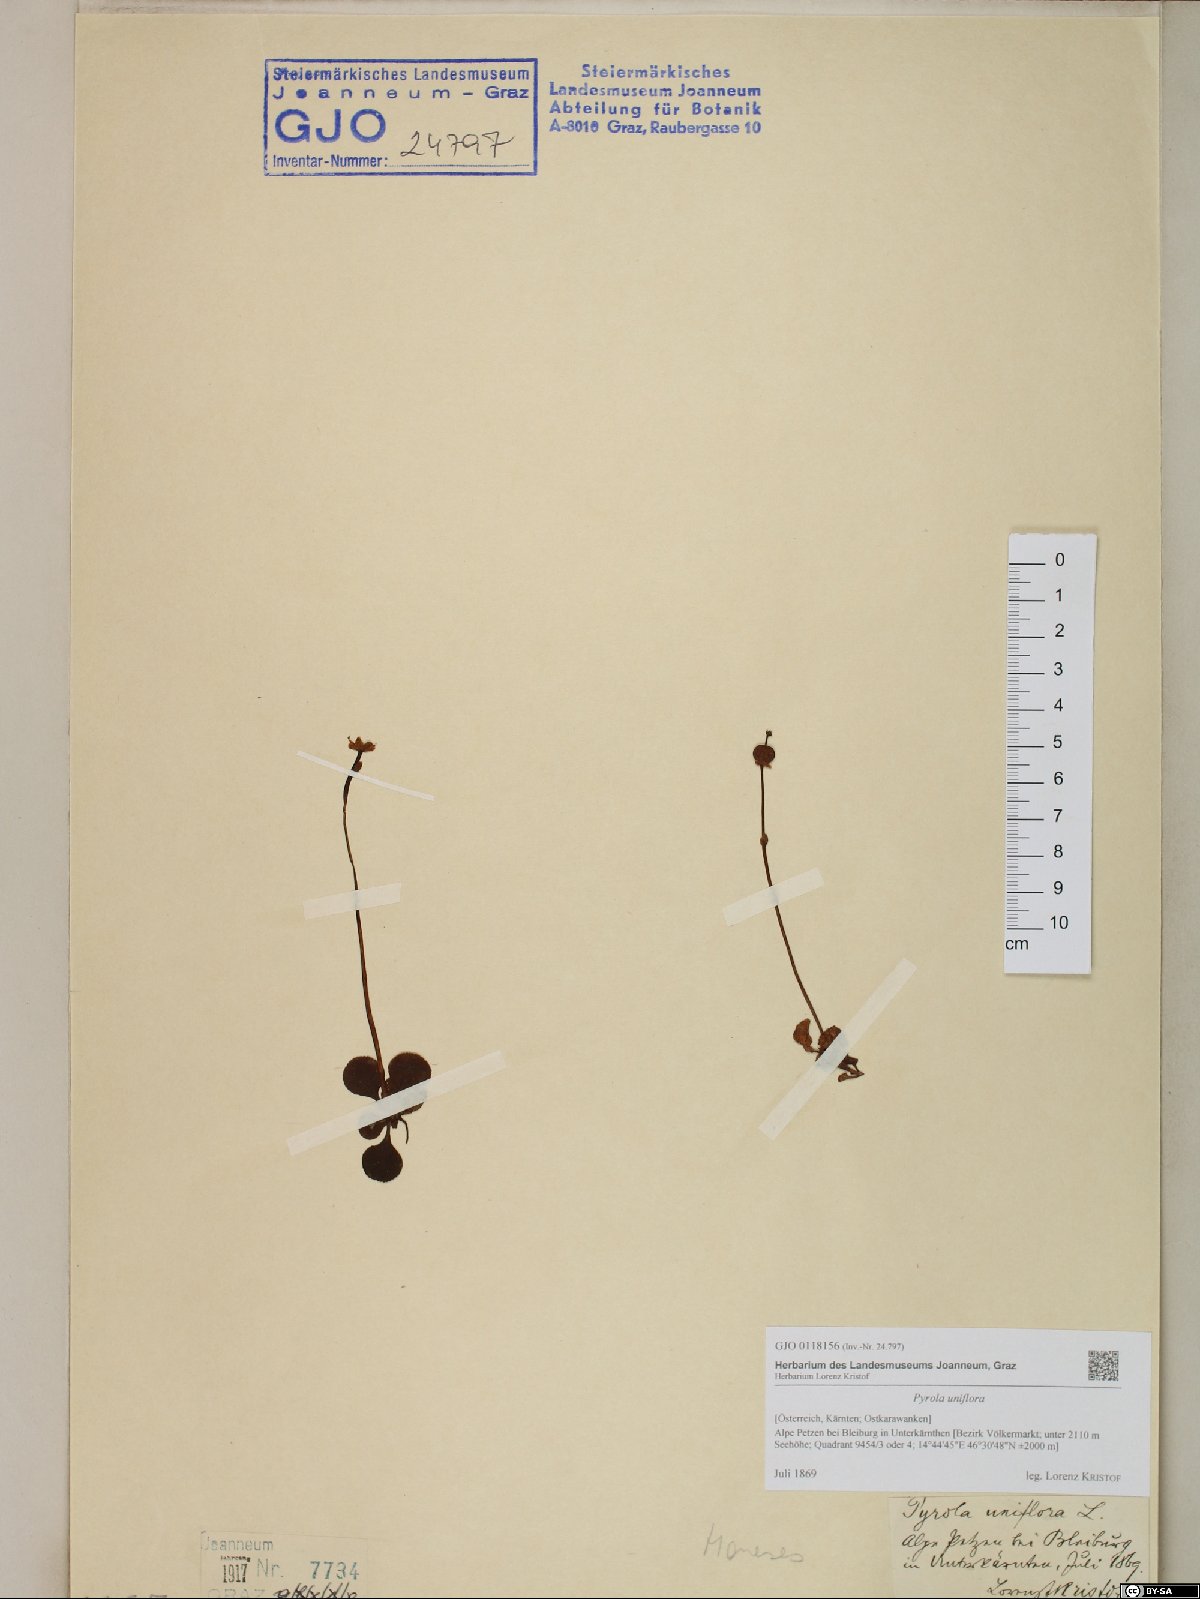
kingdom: Plantae
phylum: Tracheophyta
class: Magnoliopsida
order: Ericales
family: Ericaceae
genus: Moneses
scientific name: Moneses uniflora
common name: One-flowered wintergreen
